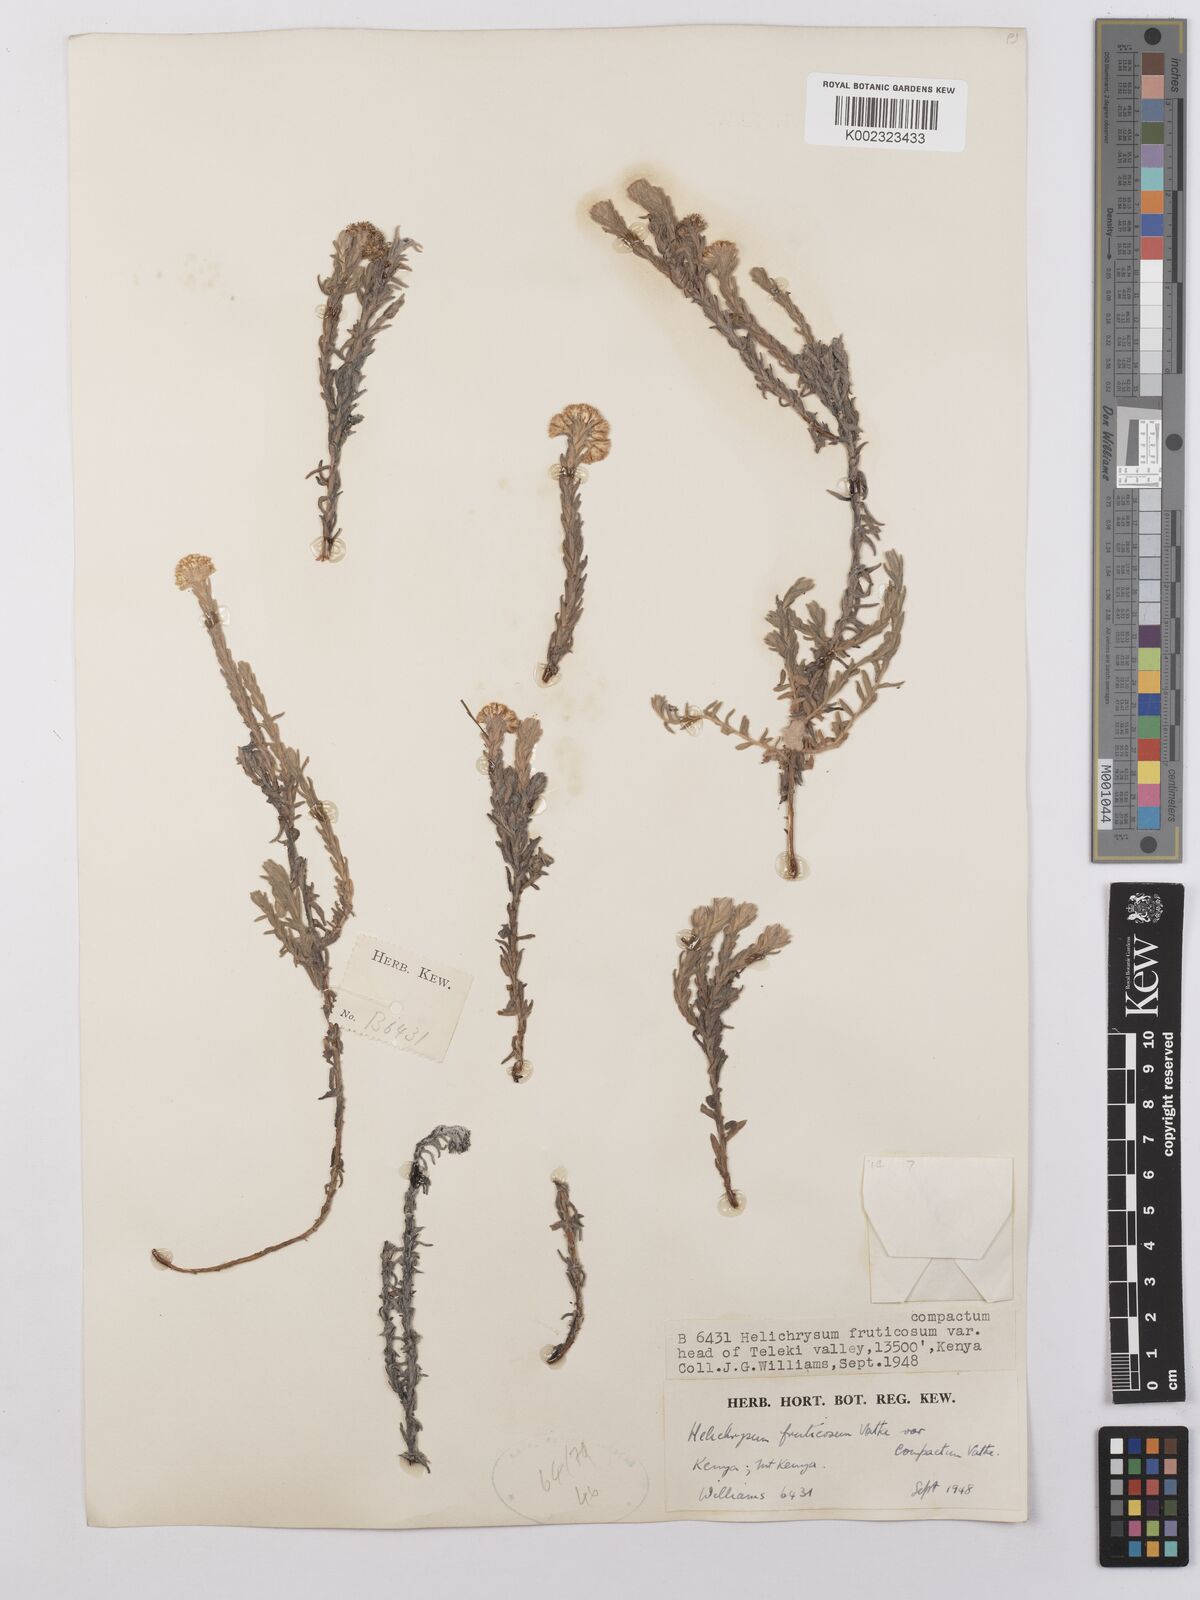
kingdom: Plantae
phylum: Tracheophyta
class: Magnoliopsida
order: Asterales
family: Asteraceae
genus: Helichrysum
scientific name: Helichrysum forskahlii
